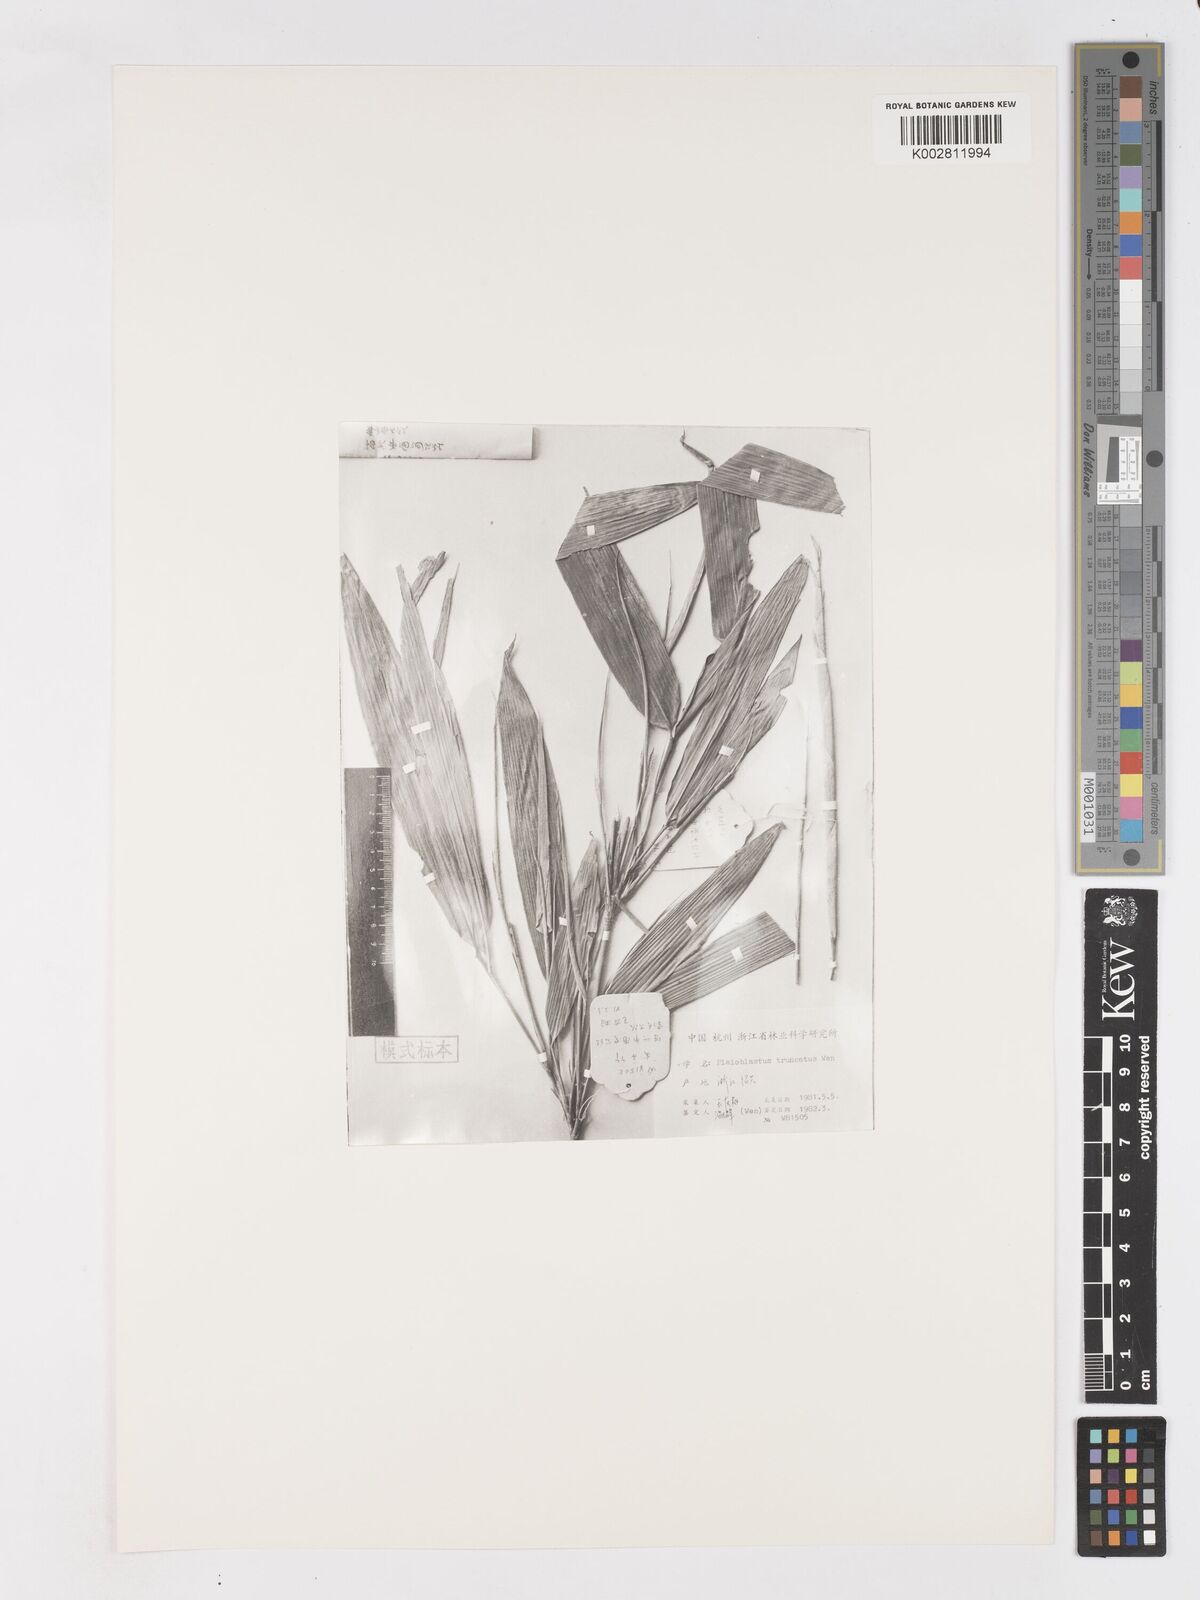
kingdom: Plantae
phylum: Tracheophyta
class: Liliopsida
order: Poales
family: Poaceae
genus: Arundinaria
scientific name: Arundinaria
